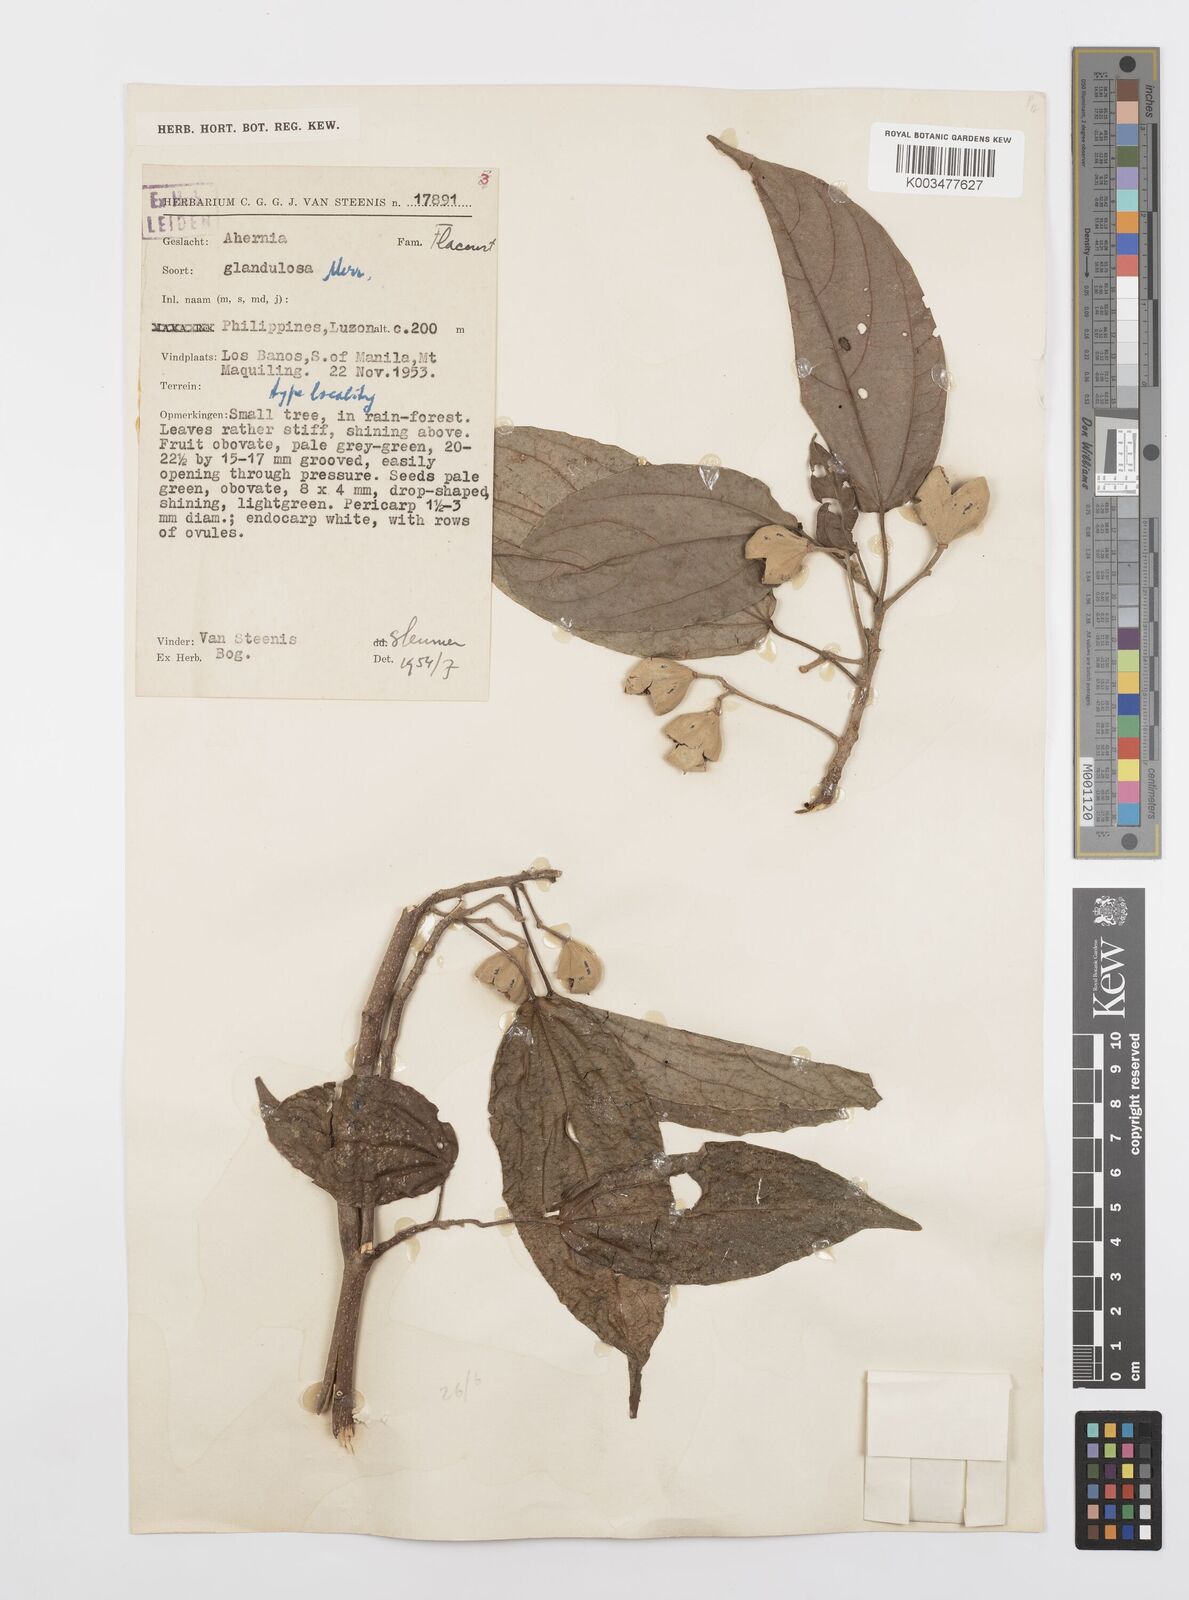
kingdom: Plantae
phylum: Tracheophyta
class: Magnoliopsida
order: Malpighiales
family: Achariaceae
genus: Ahernia
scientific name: Ahernia glandulosa
